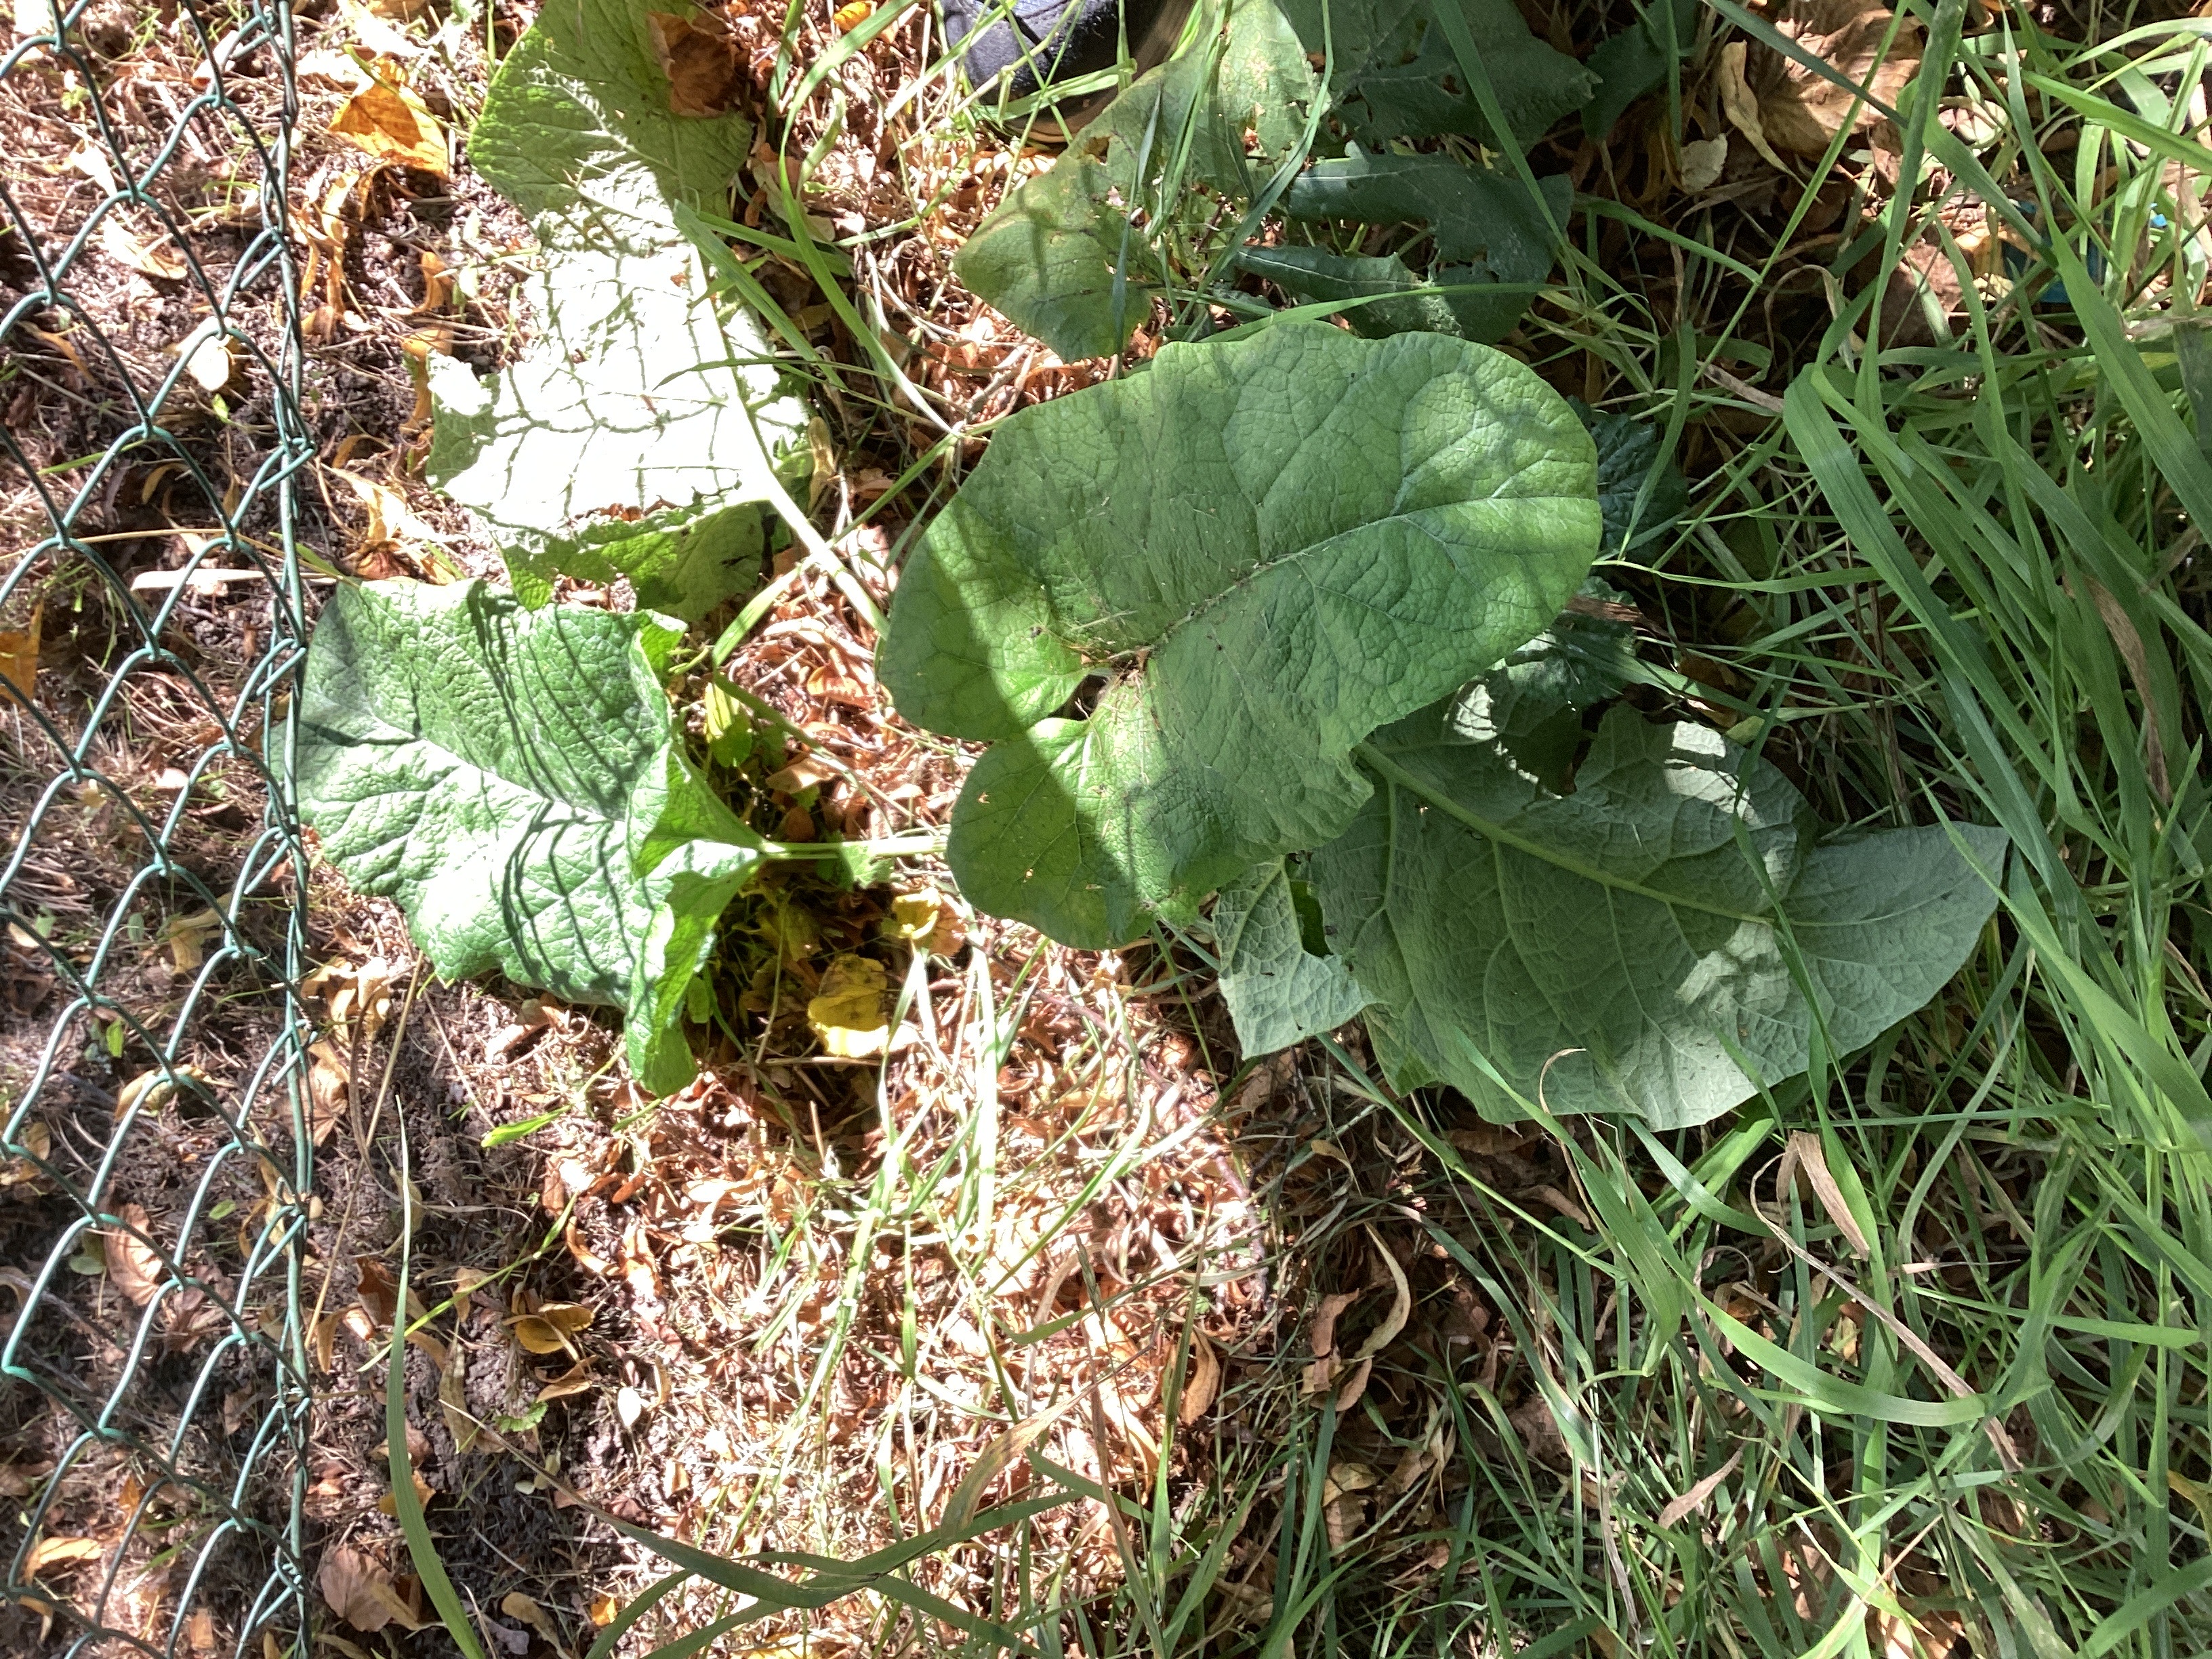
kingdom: Plantae
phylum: Tracheophyta
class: Magnoliopsida
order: Asterales
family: Asteraceae
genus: Arctium
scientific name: Arctium tomentosum
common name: ullborre
